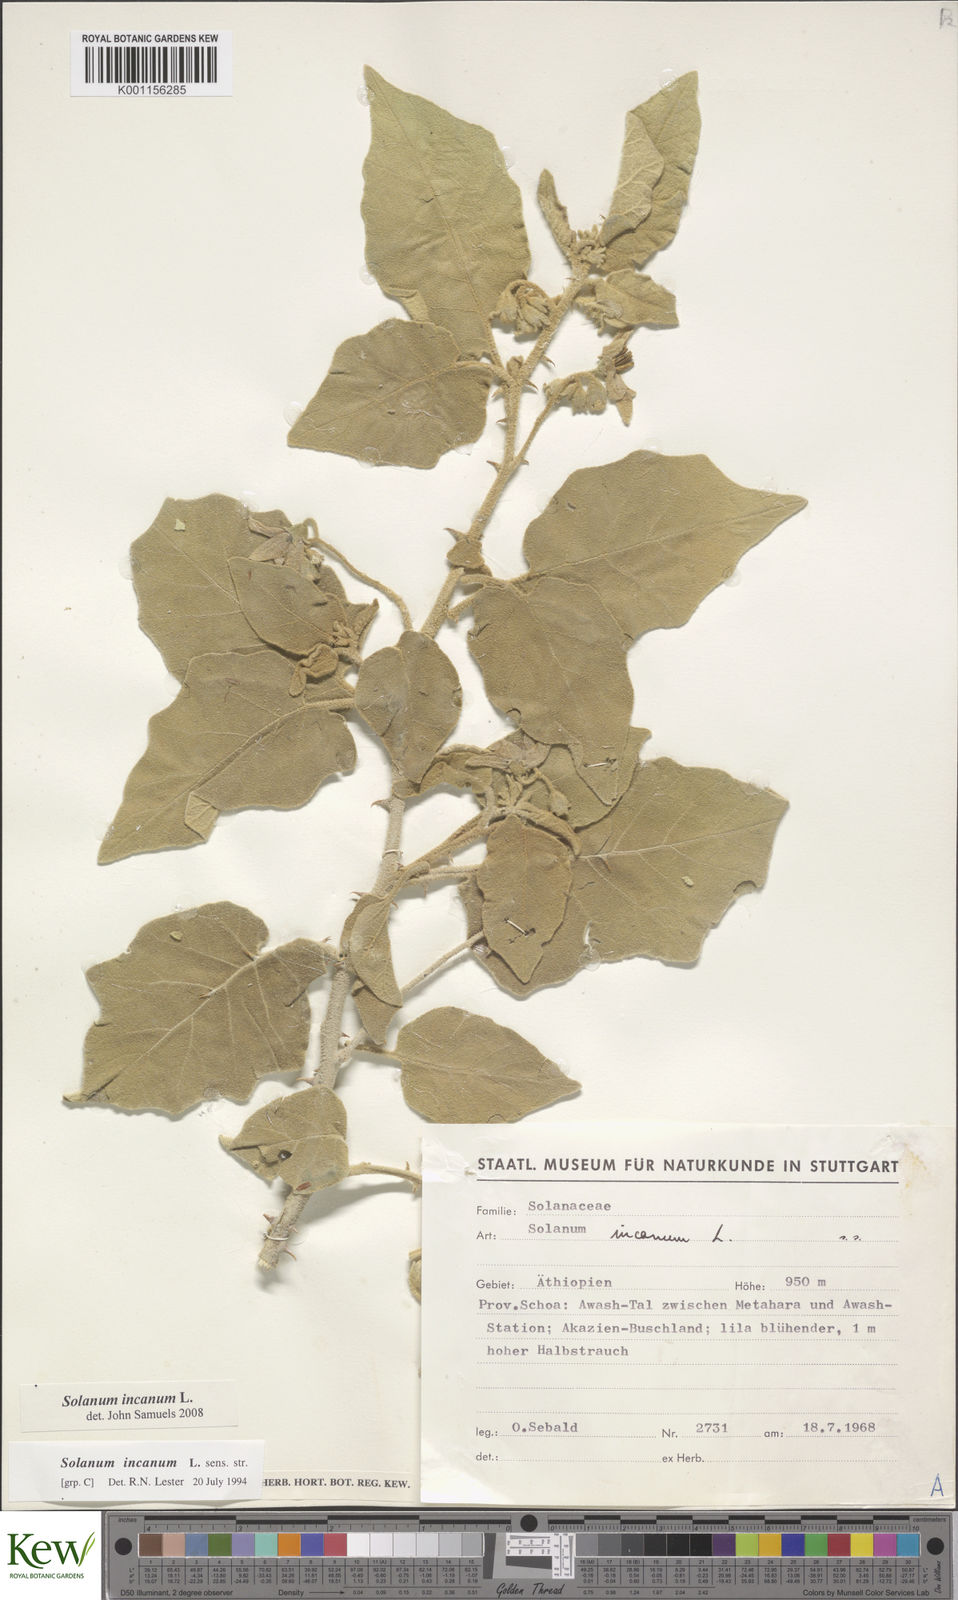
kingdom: Plantae
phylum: Tracheophyta
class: Magnoliopsida
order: Solanales
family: Solanaceae
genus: Solanum
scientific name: Solanum incanum
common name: Bitter apple
